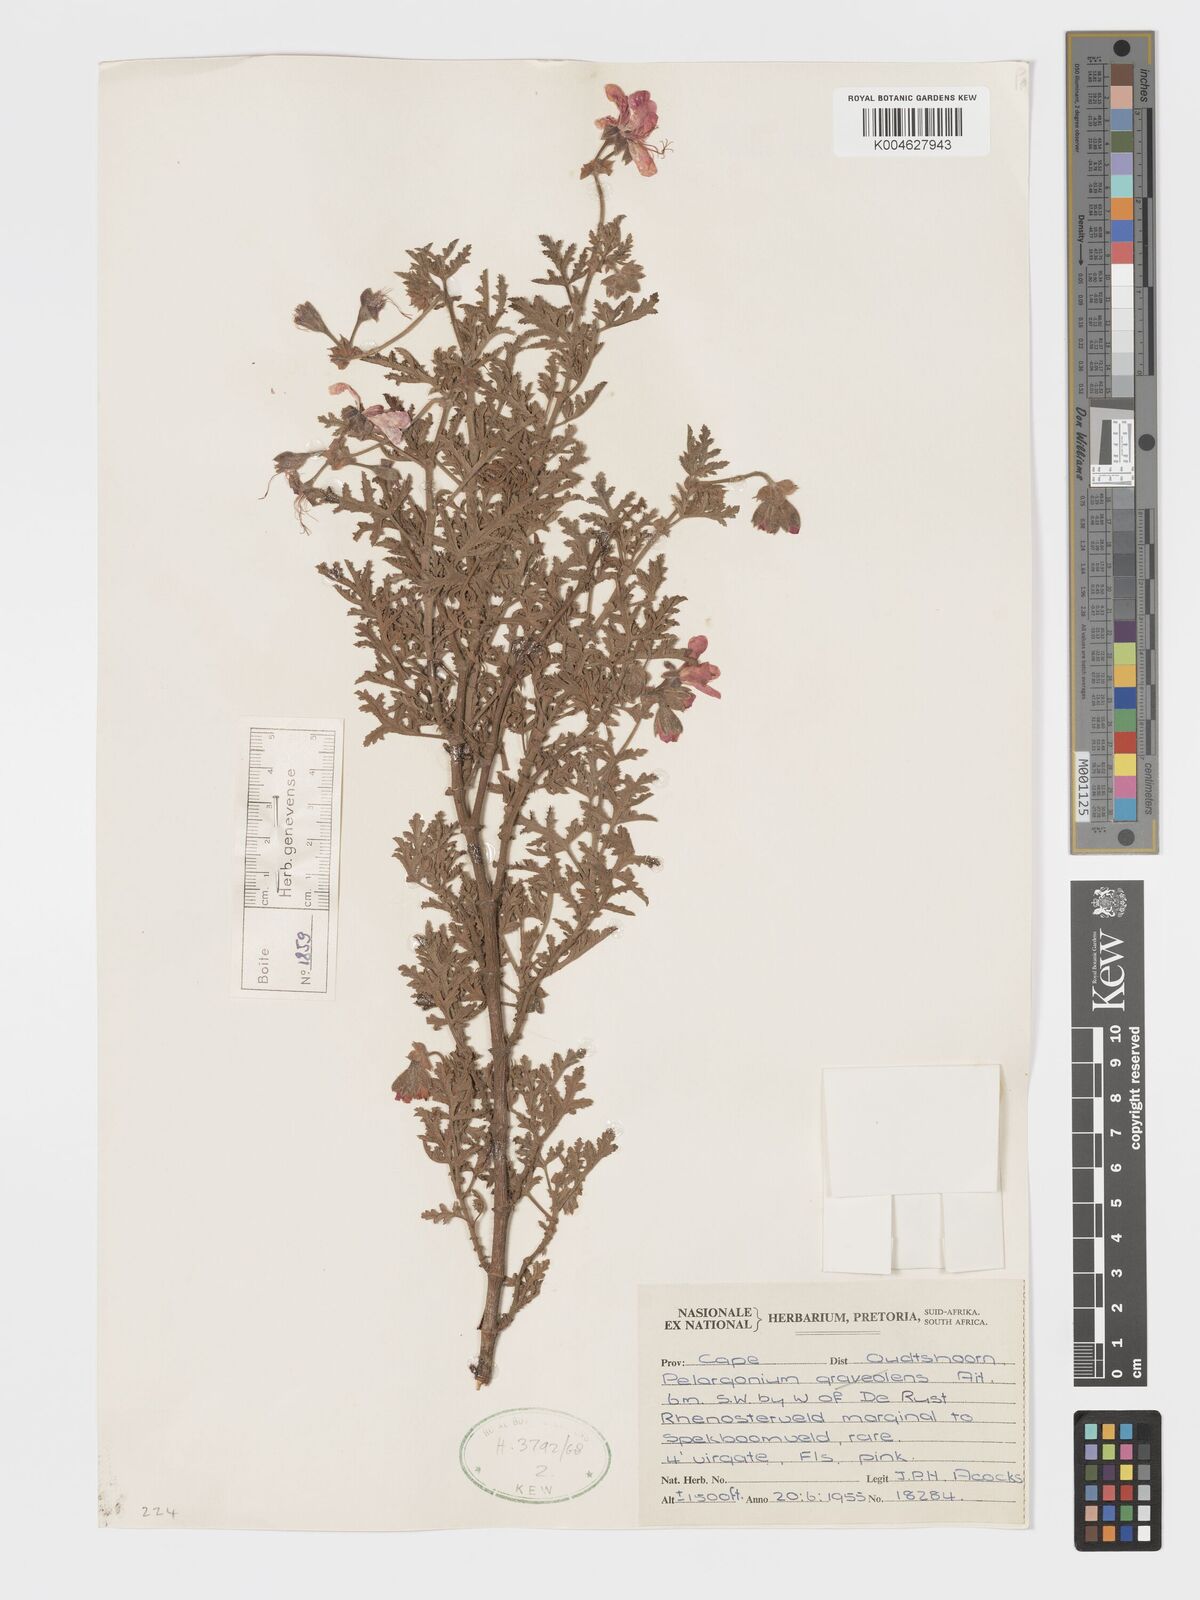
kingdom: Plantae
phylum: Tracheophyta
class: Magnoliopsida
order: Geraniales
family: Geraniaceae
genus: Pelargonium
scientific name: Pelargonium quercifolium
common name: Oakleaf geranium
